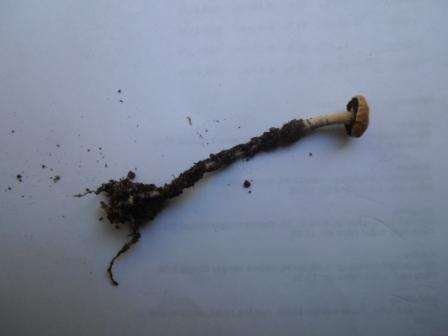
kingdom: Fungi
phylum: Basidiomycota
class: Agaricomycetes
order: Agaricales
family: Strophariaceae
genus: Deconica
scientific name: Deconica merdaria
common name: møg-stråhat
